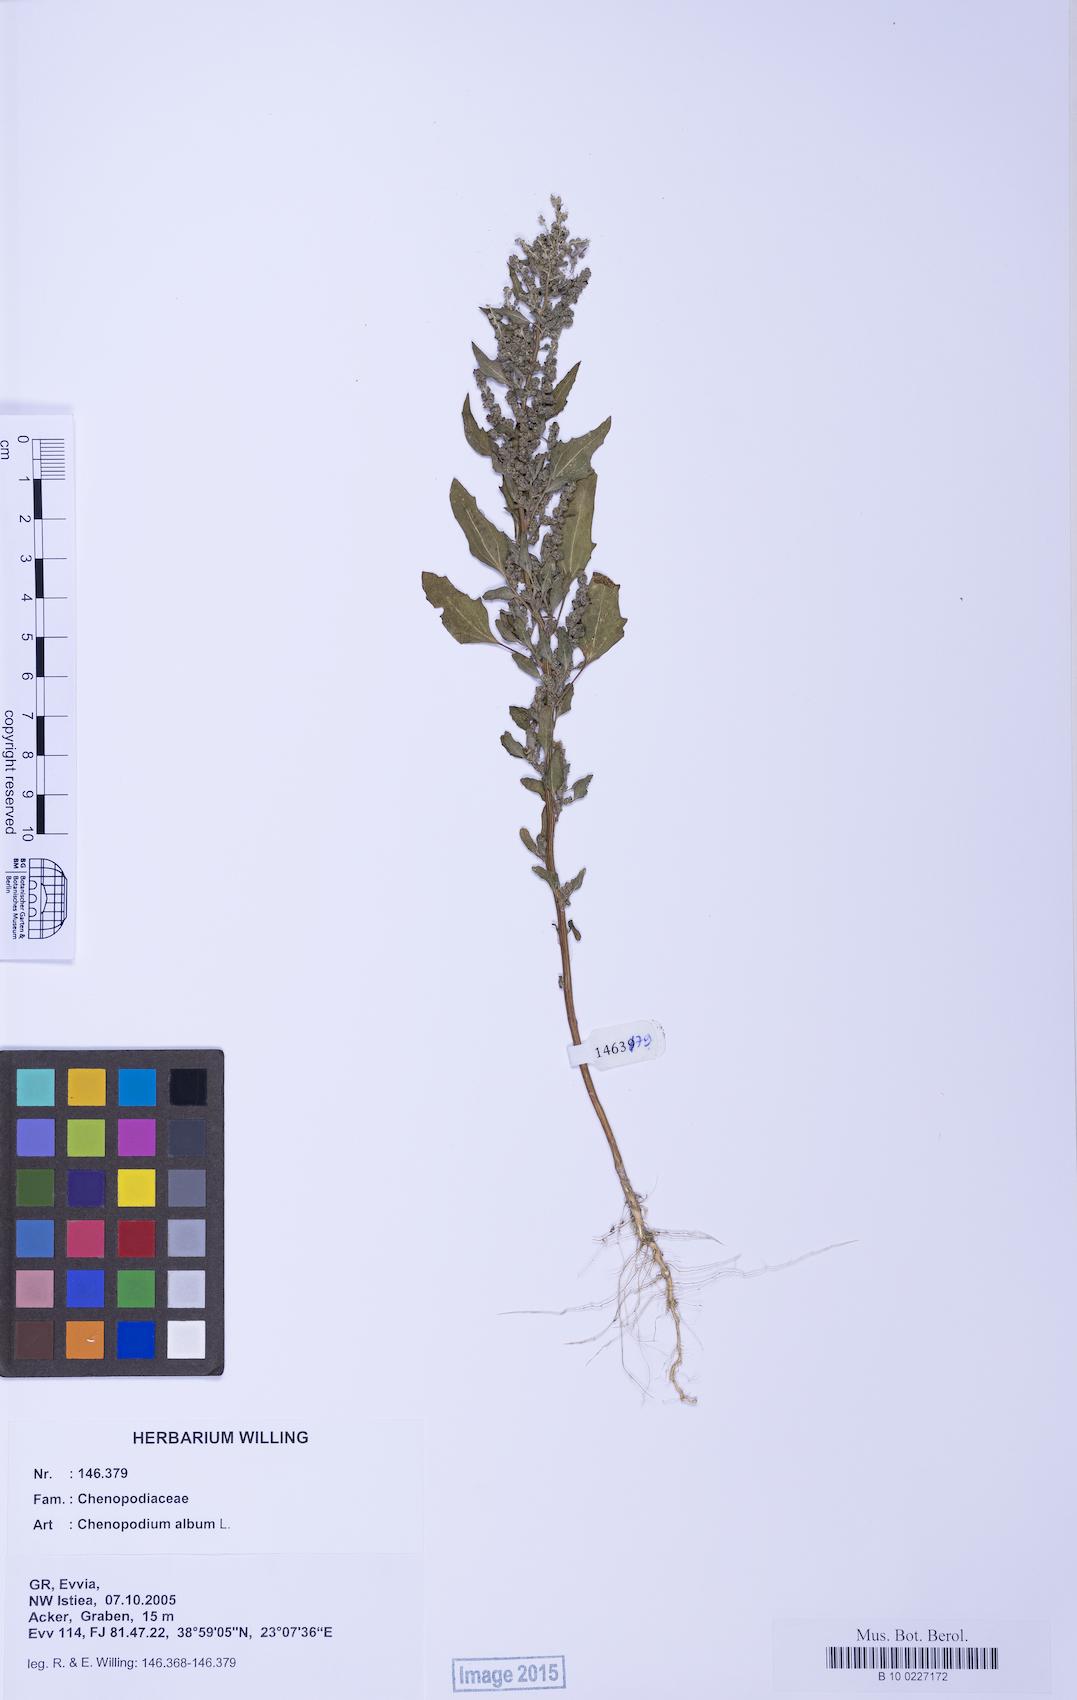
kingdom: Plantae
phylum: Tracheophyta
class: Magnoliopsida
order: Caryophyllales
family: Amaranthaceae
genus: Chenopodium
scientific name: Chenopodium album
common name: Fat-hen
